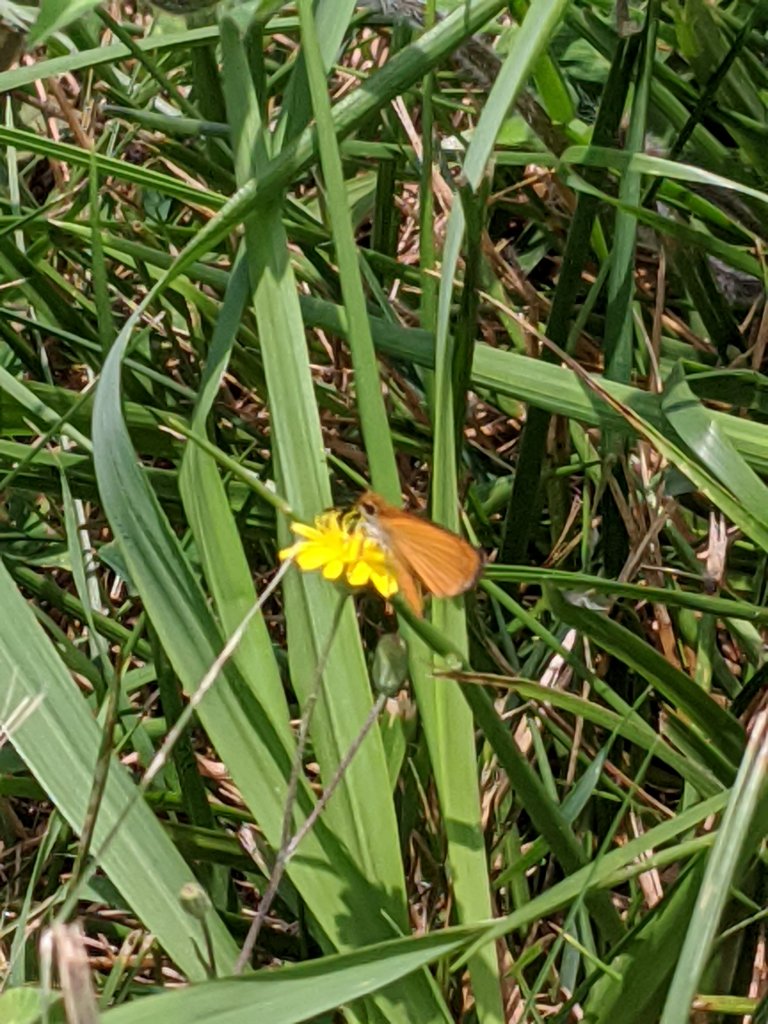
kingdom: Animalia
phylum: Arthropoda
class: Insecta
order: Lepidoptera
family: Hesperiidae
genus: Ancyloxypha
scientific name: Ancyloxypha numitor
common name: Least Skipper
